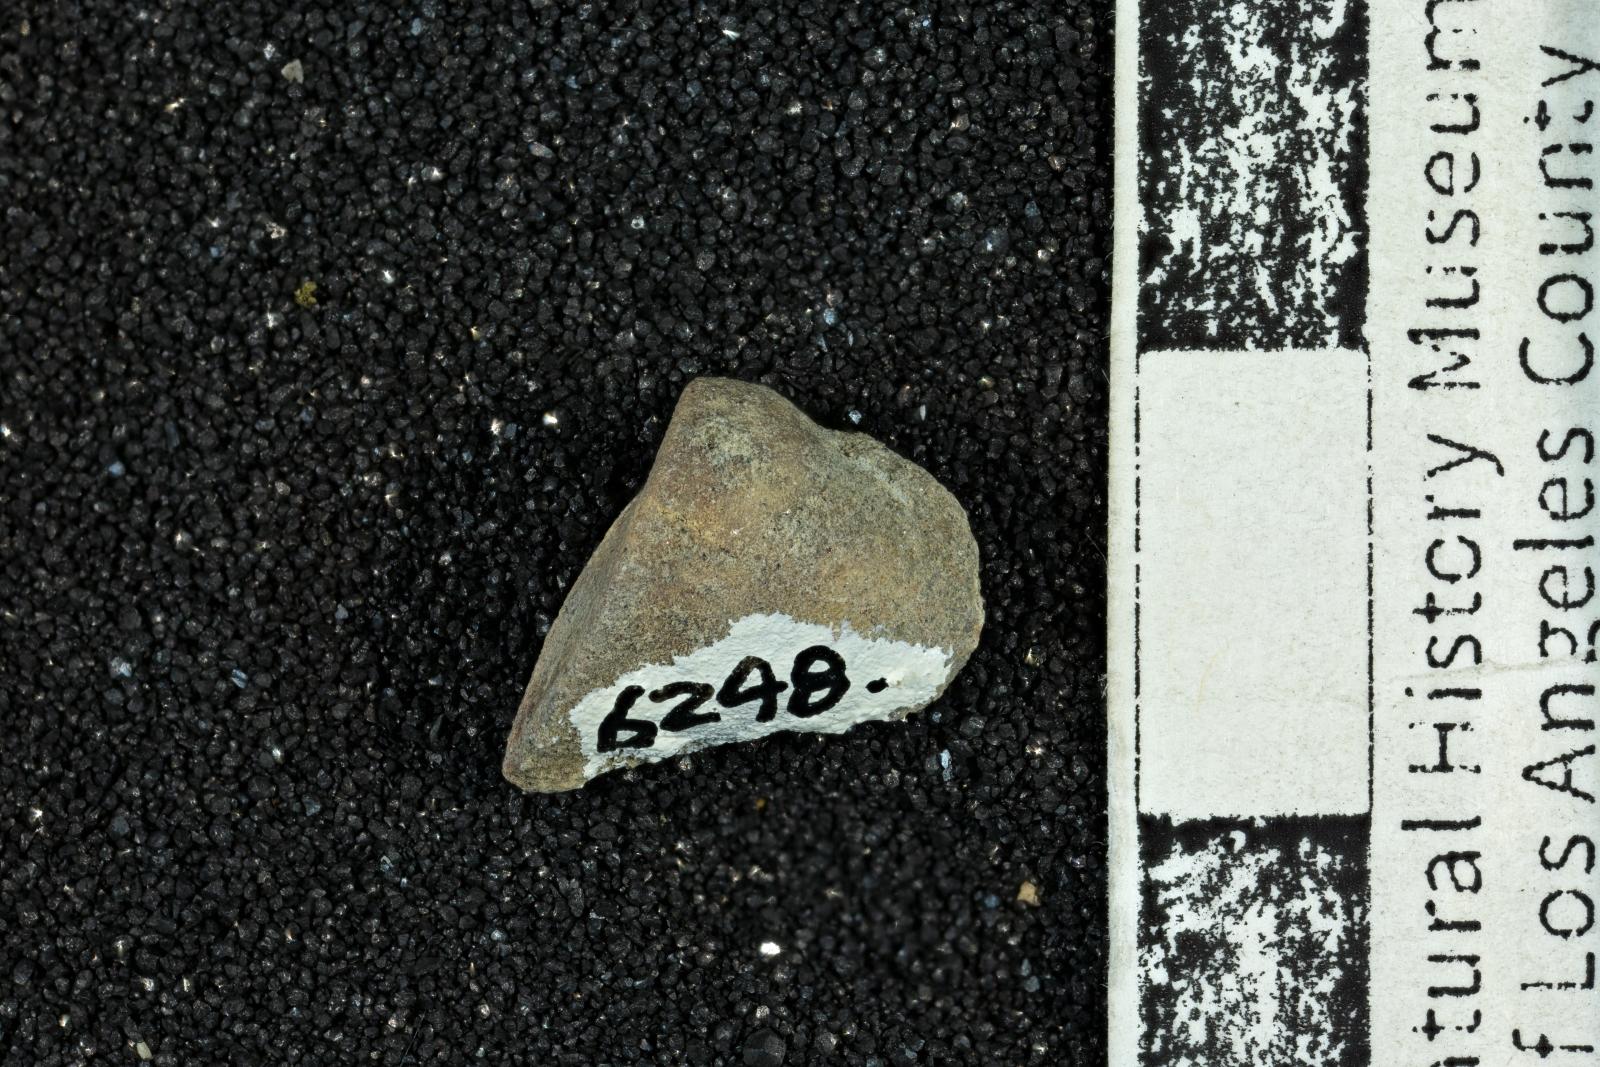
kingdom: Animalia
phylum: Mollusca
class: Bivalvia
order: Arcida
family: Noetiidae
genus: Trinacria
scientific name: Trinacria cor
